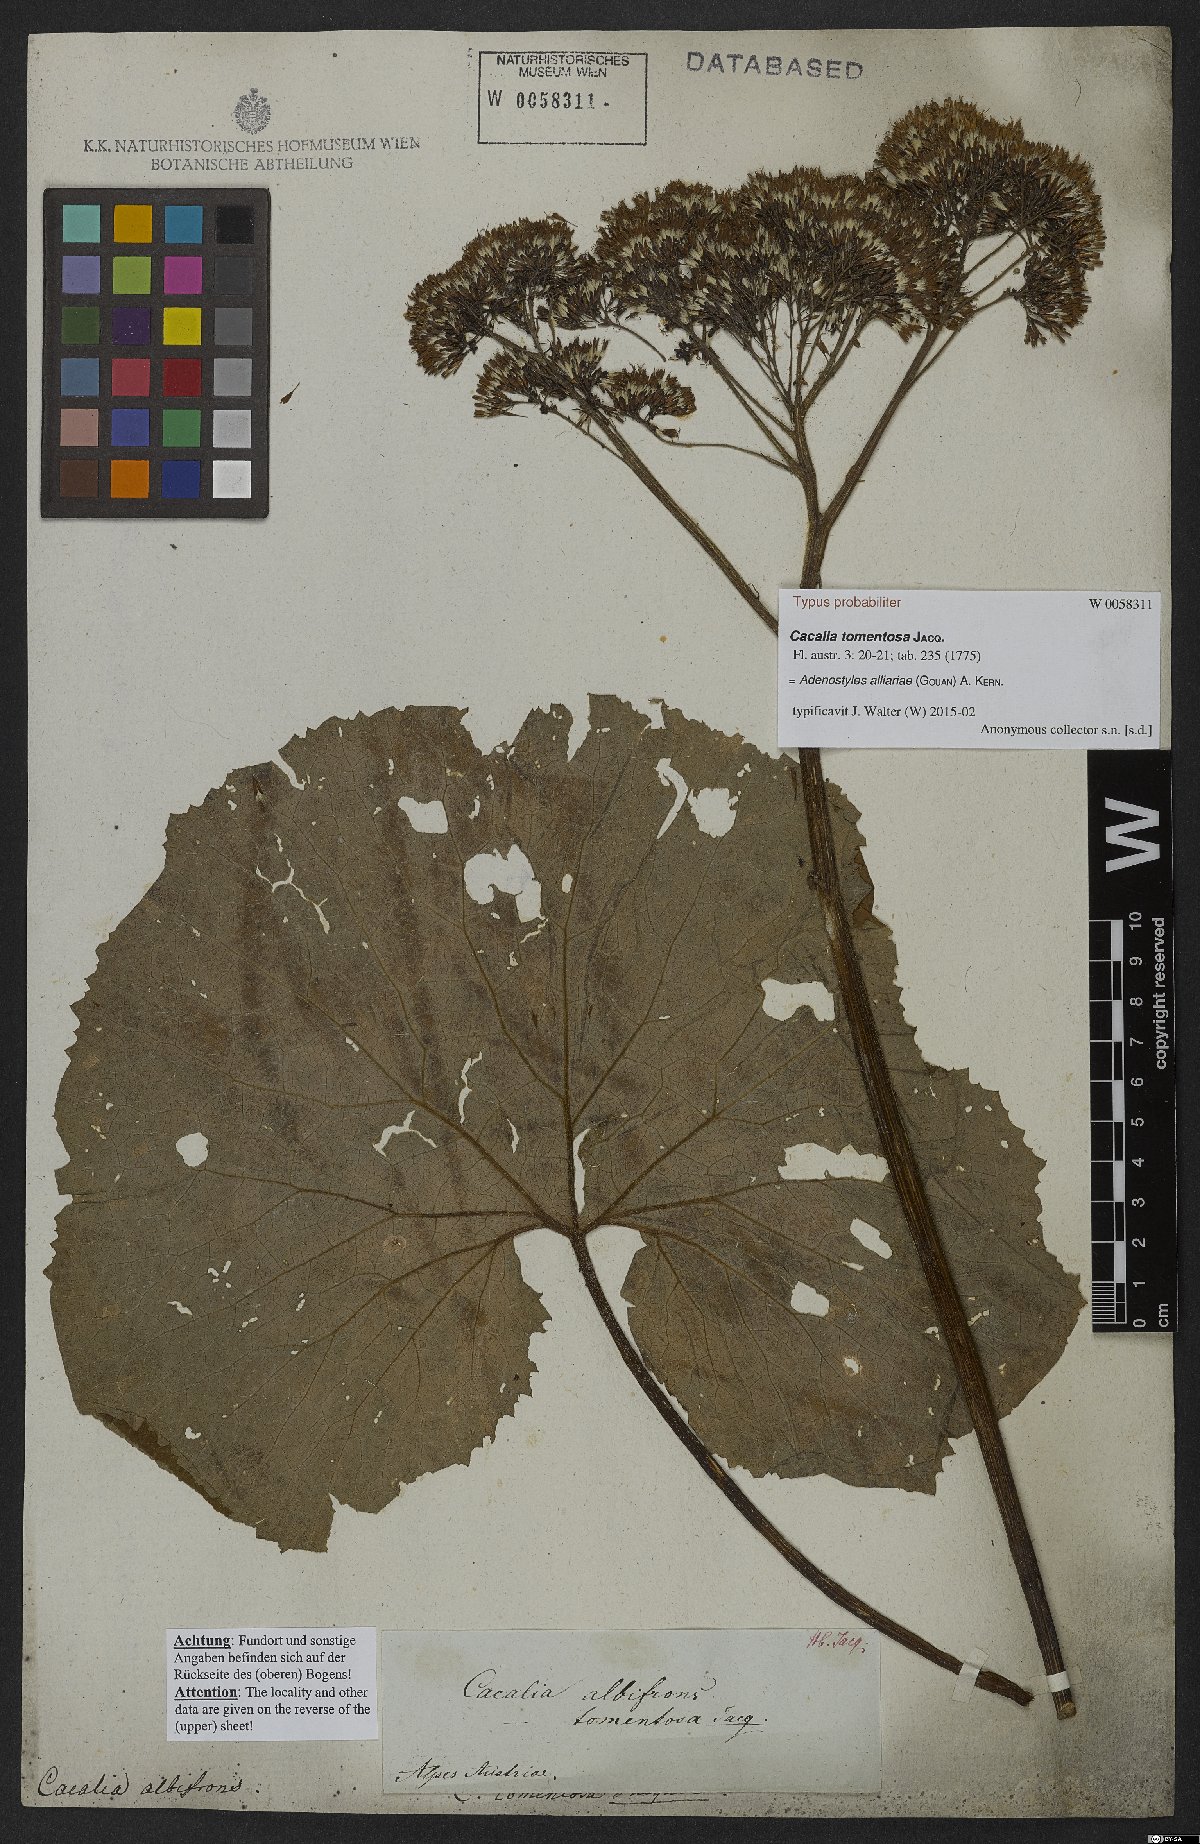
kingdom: Plantae
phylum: Tracheophyta
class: Magnoliopsida
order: Asterales
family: Asteraceae
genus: Adenostyles
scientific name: Adenostyles alliariae
